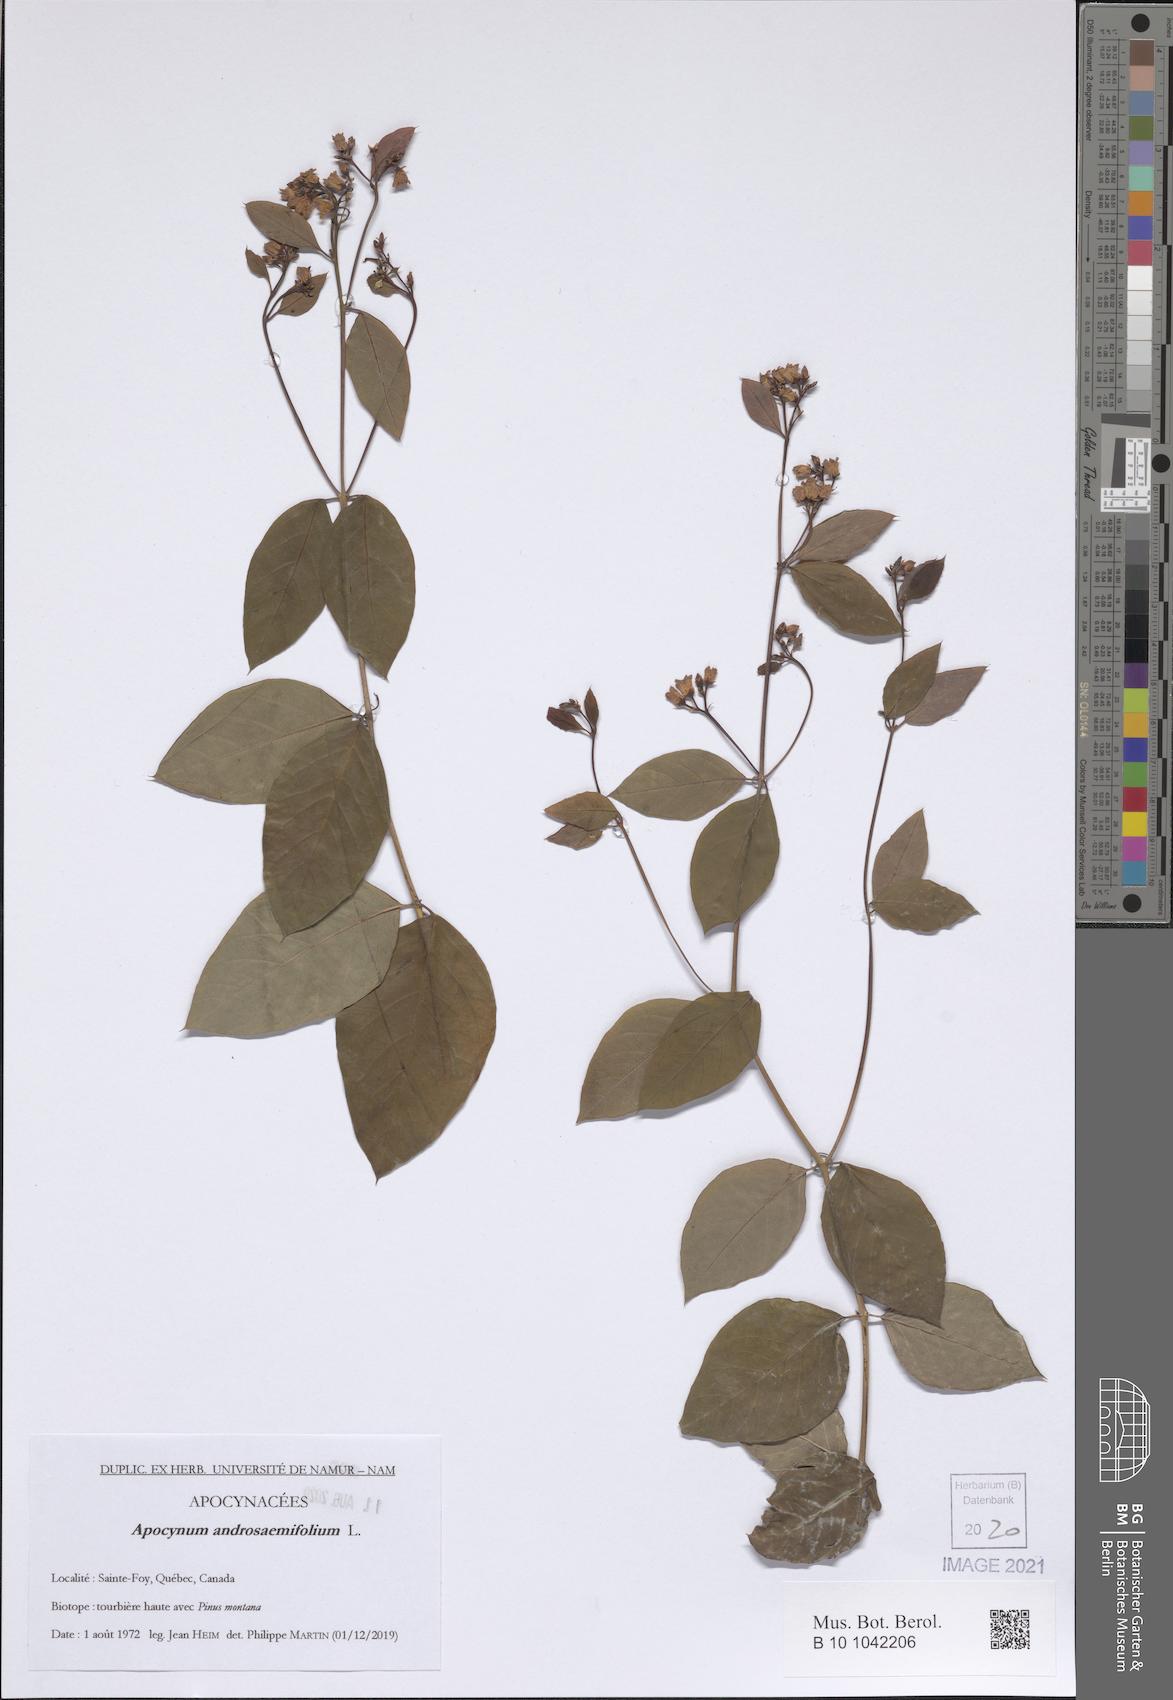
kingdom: Plantae
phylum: Tracheophyta
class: Magnoliopsida
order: Gentianales
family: Apocynaceae
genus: Apocynum
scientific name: Apocynum androsaemifolium
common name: Spreading dogbane
